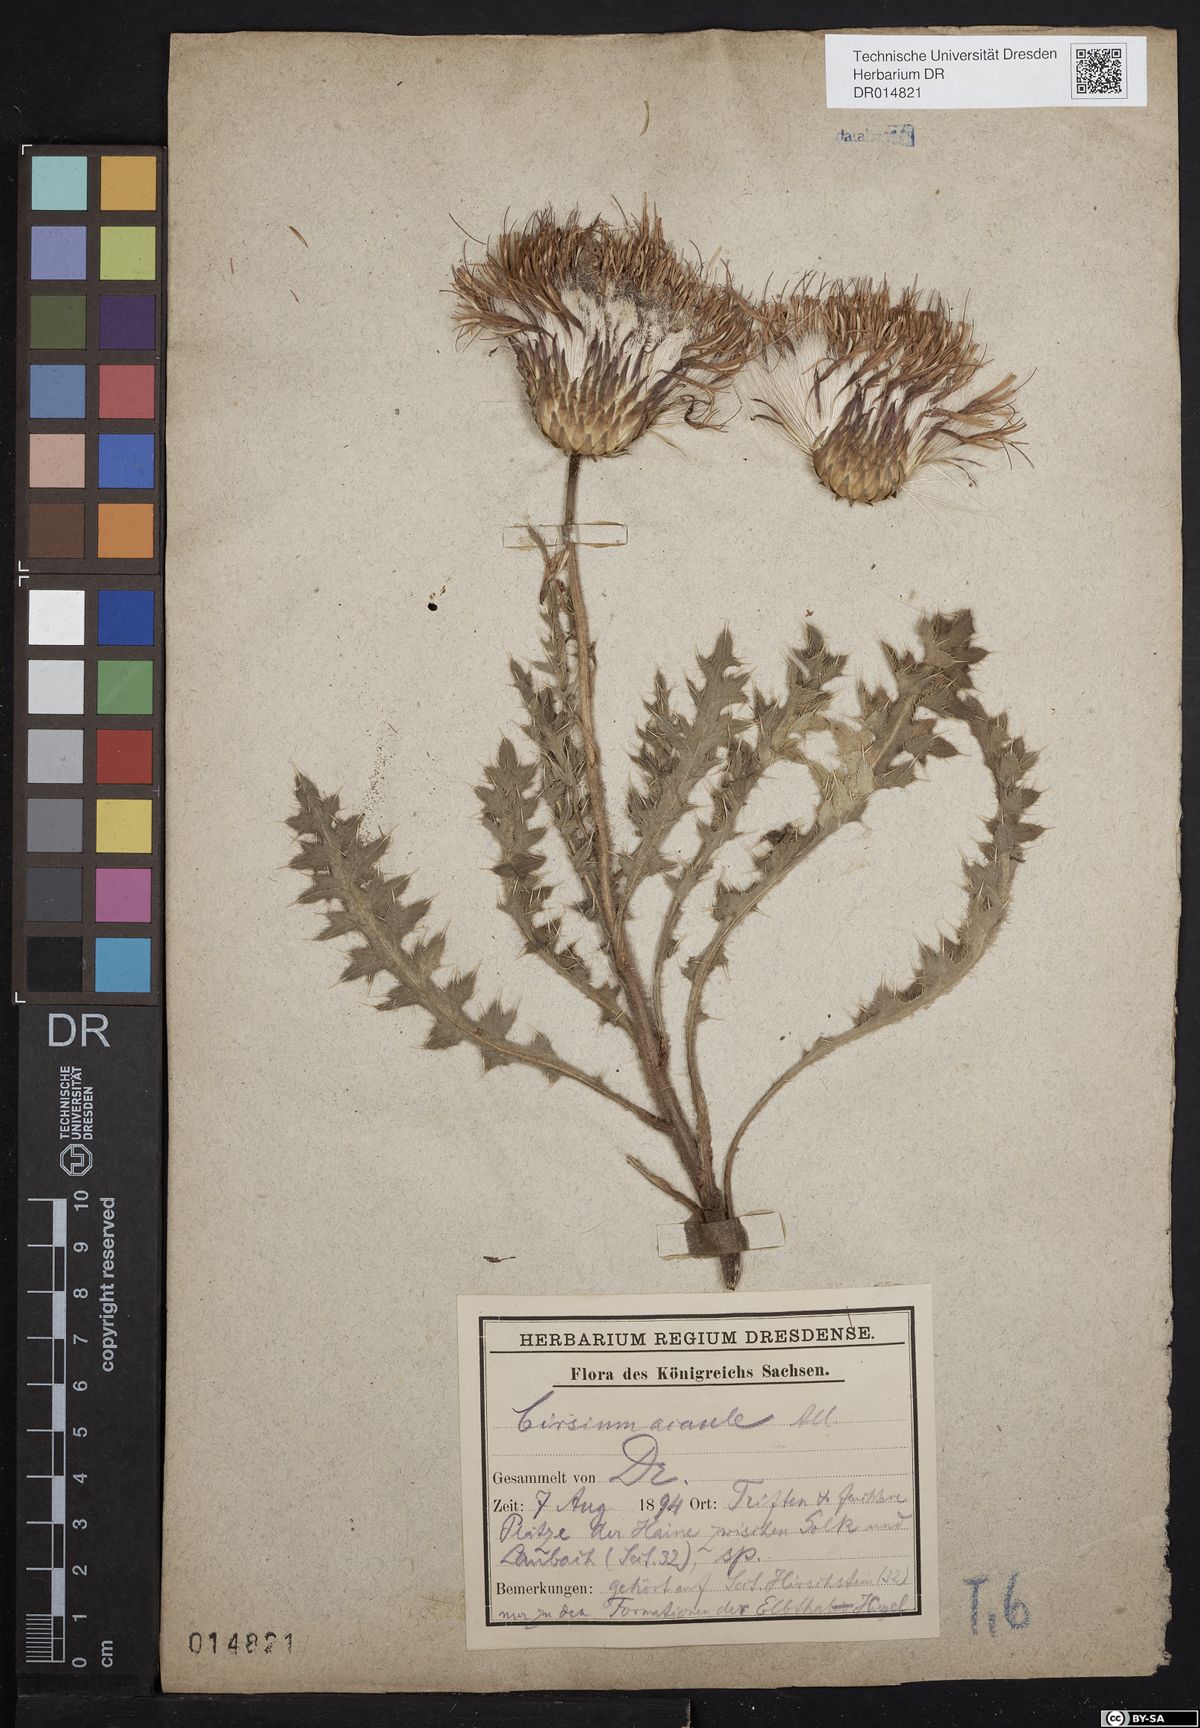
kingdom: Plantae
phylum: Tracheophyta
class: Magnoliopsida
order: Asterales
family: Asteraceae
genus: Cirsium
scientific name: Cirsium acaulon
